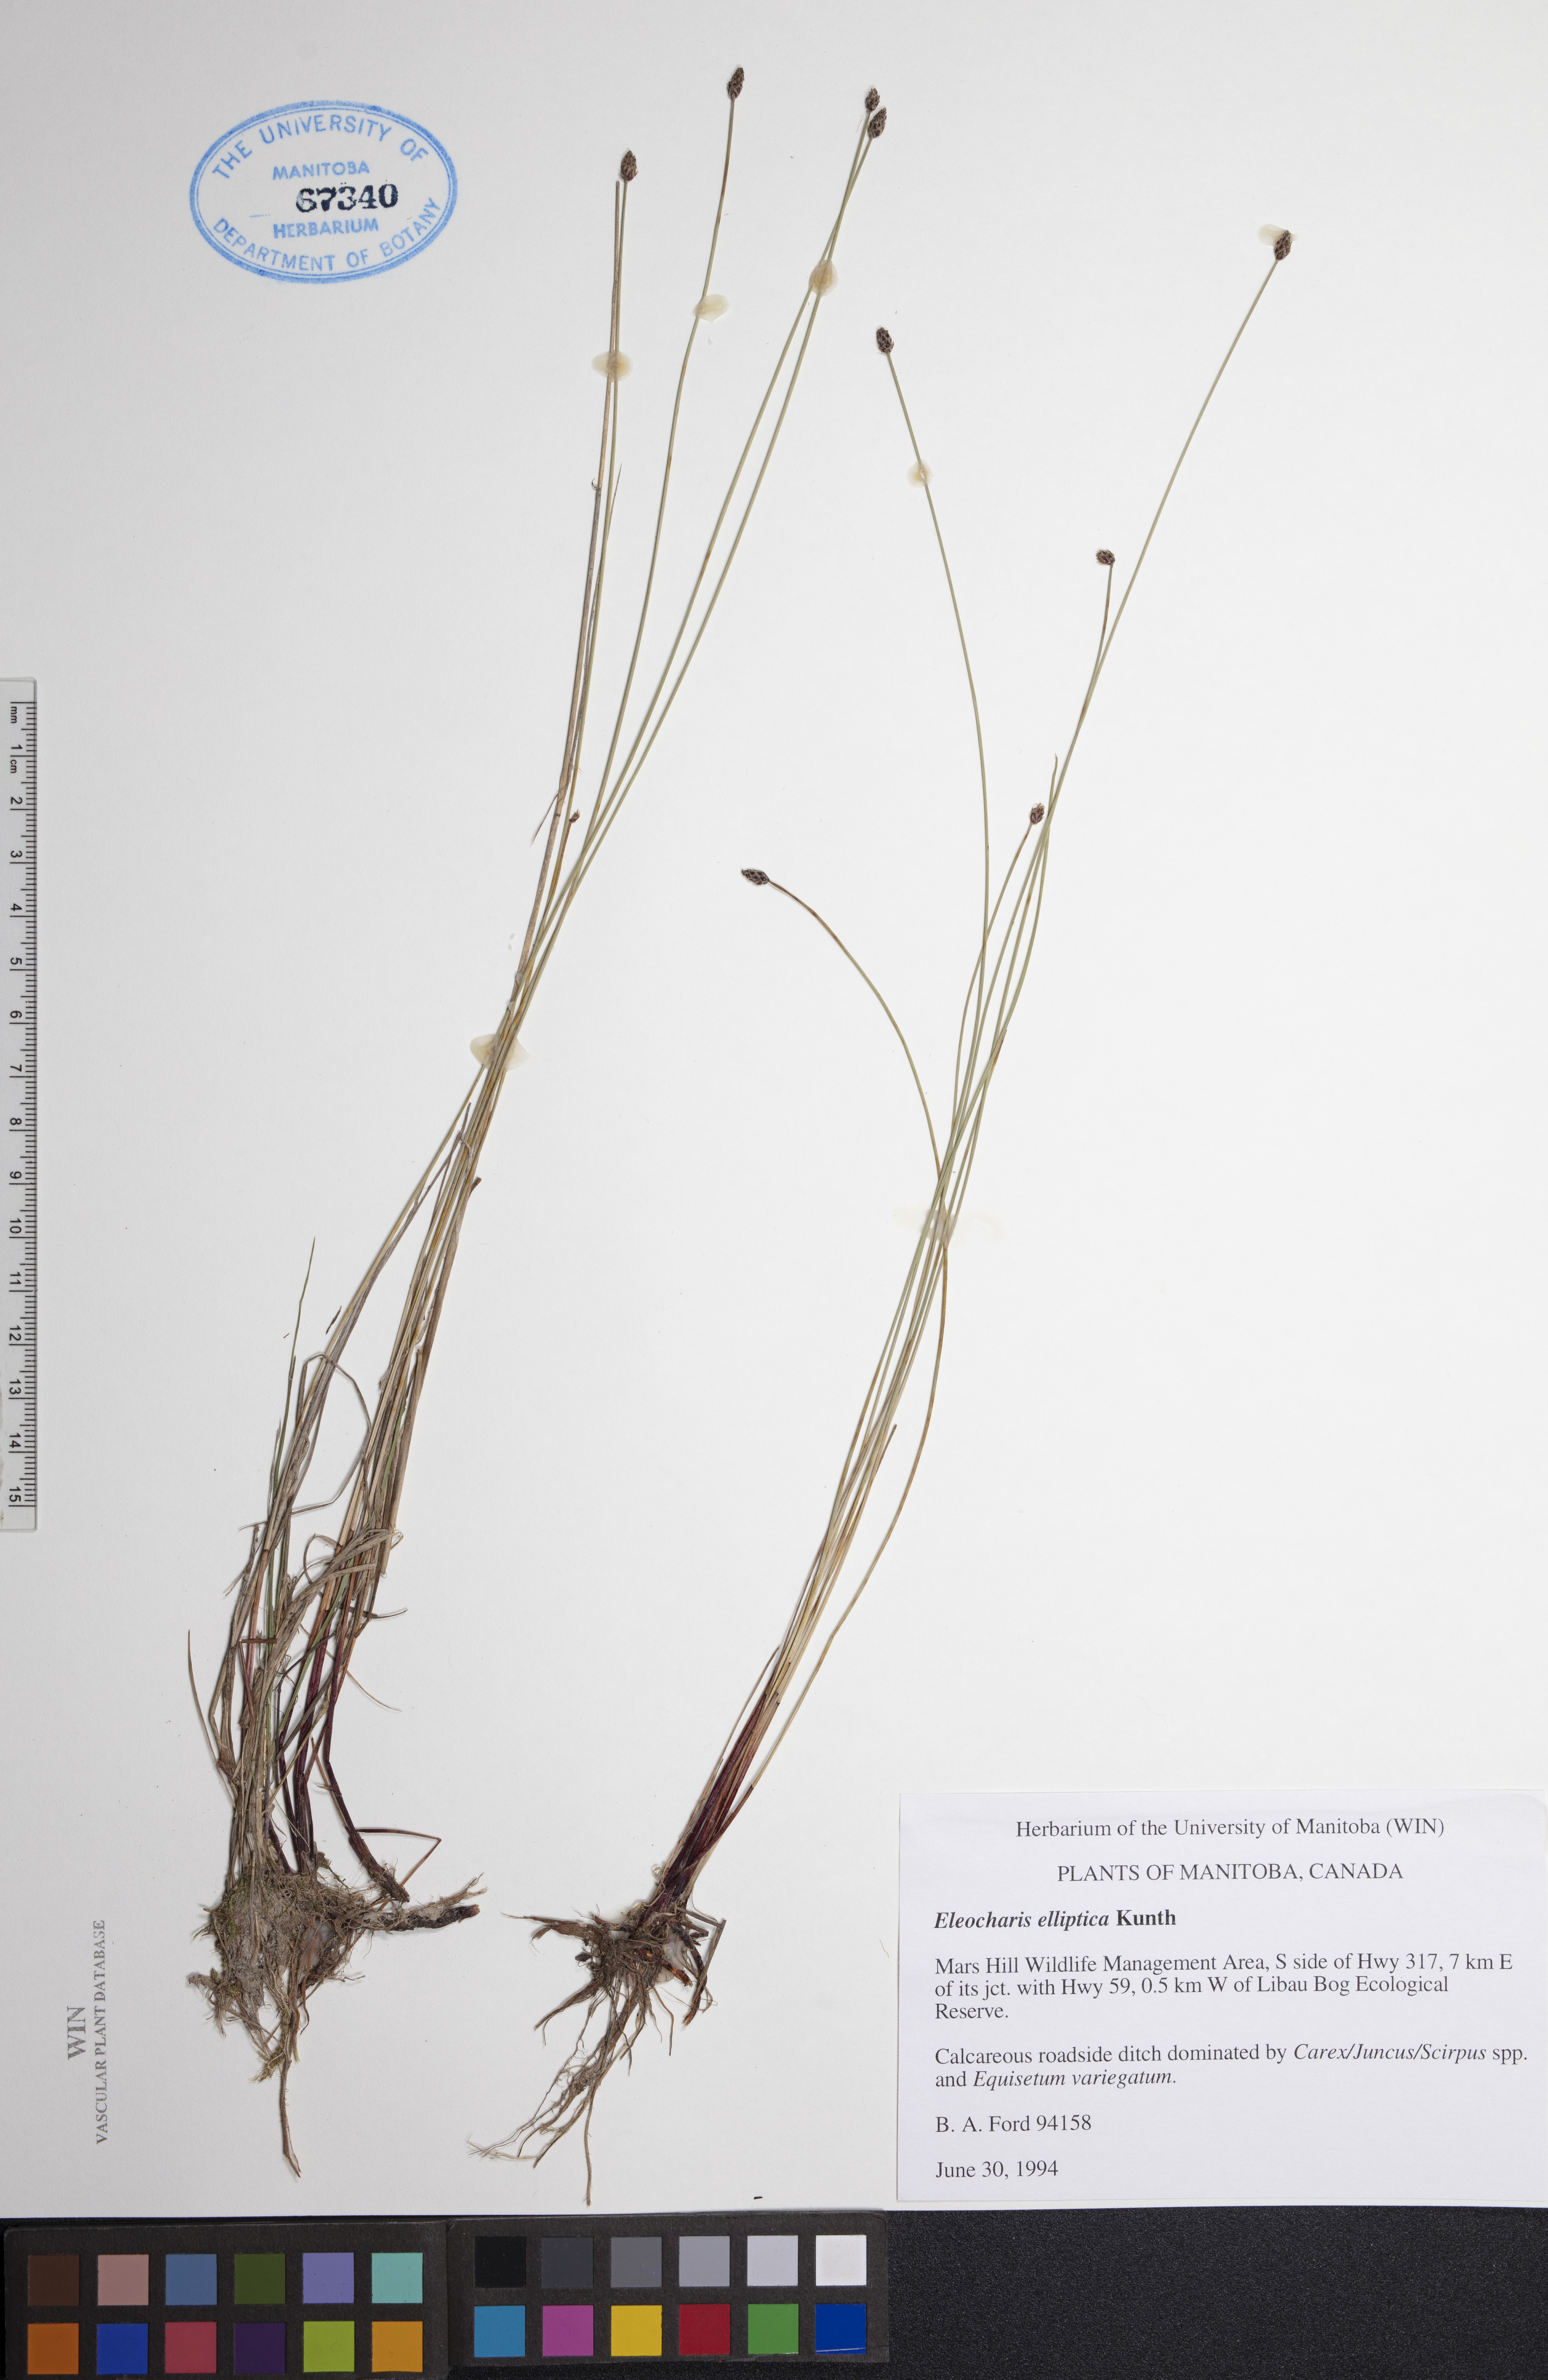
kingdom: Plantae
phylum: Tracheophyta
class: Liliopsida
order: Poales
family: Cyperaceae
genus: Eleocharis
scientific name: Eleocharis elliptica
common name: Capitate spikerush
